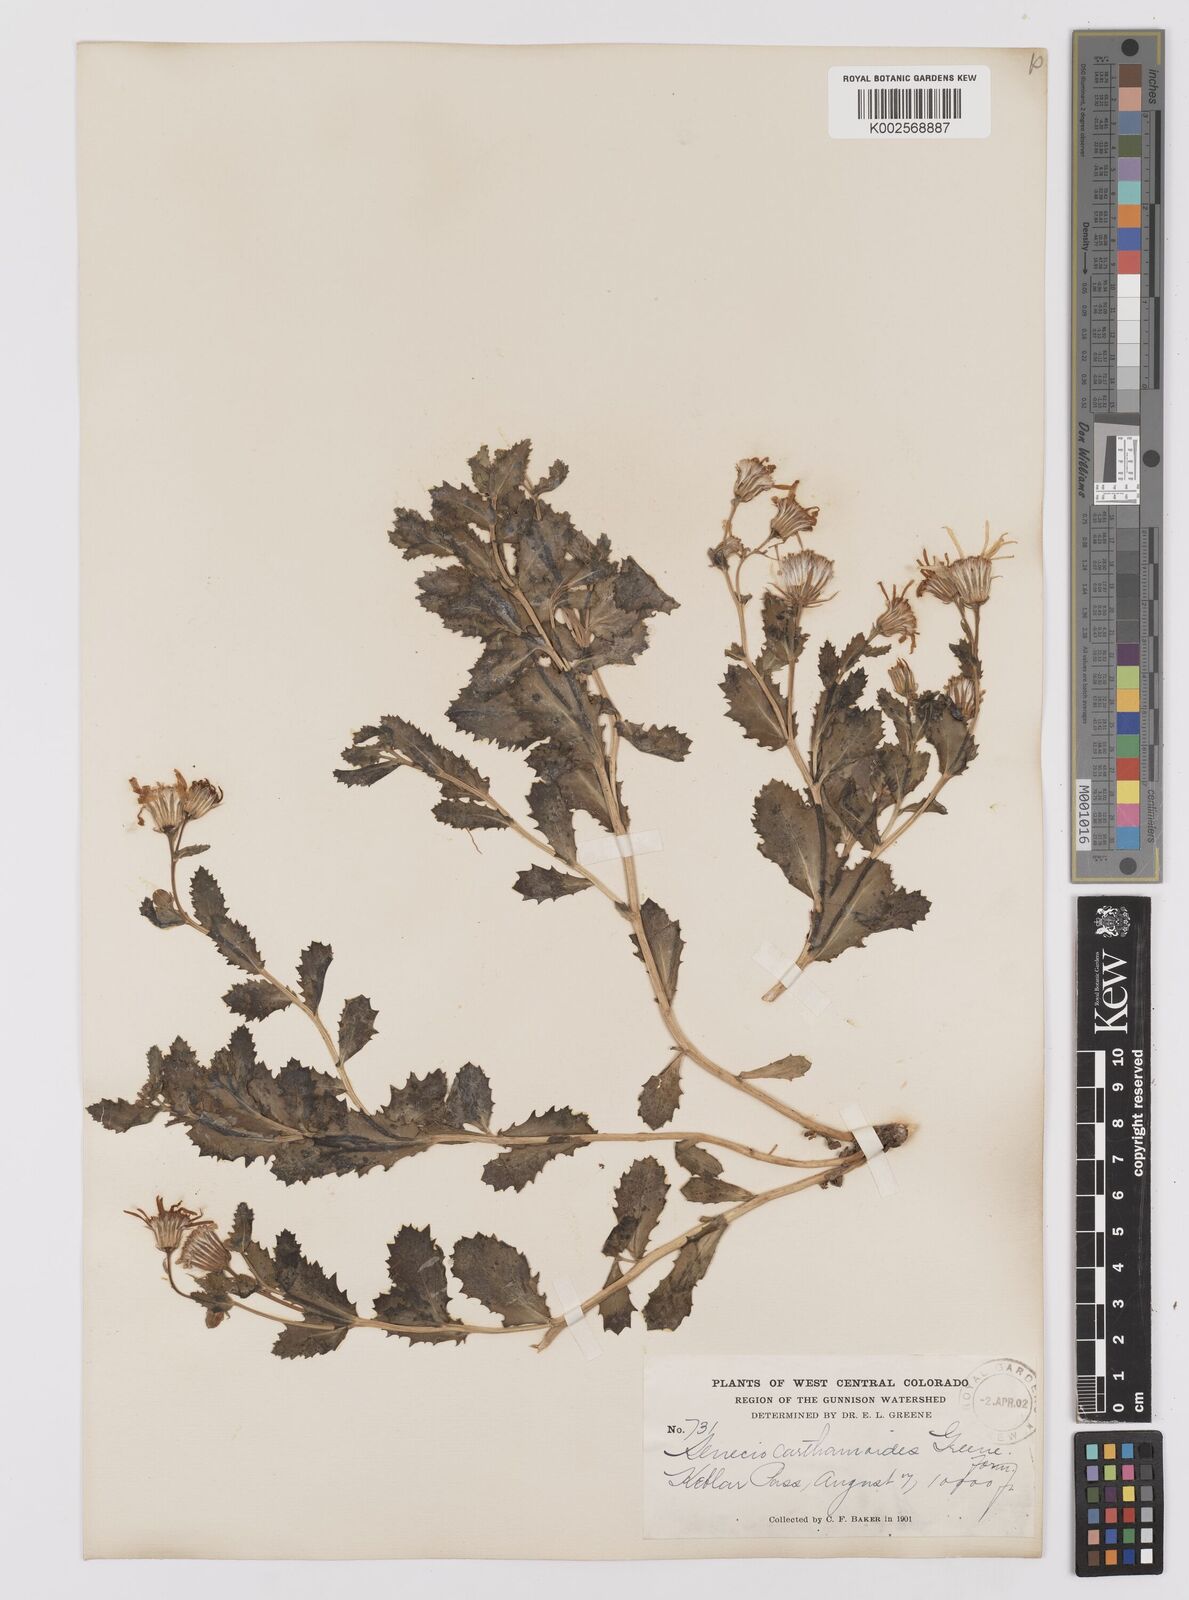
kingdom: Plantae
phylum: Tracheophyta
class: Magnoliopsida
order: Asterales
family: Asteraceae
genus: Senecio
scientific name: Senecio blitoides
